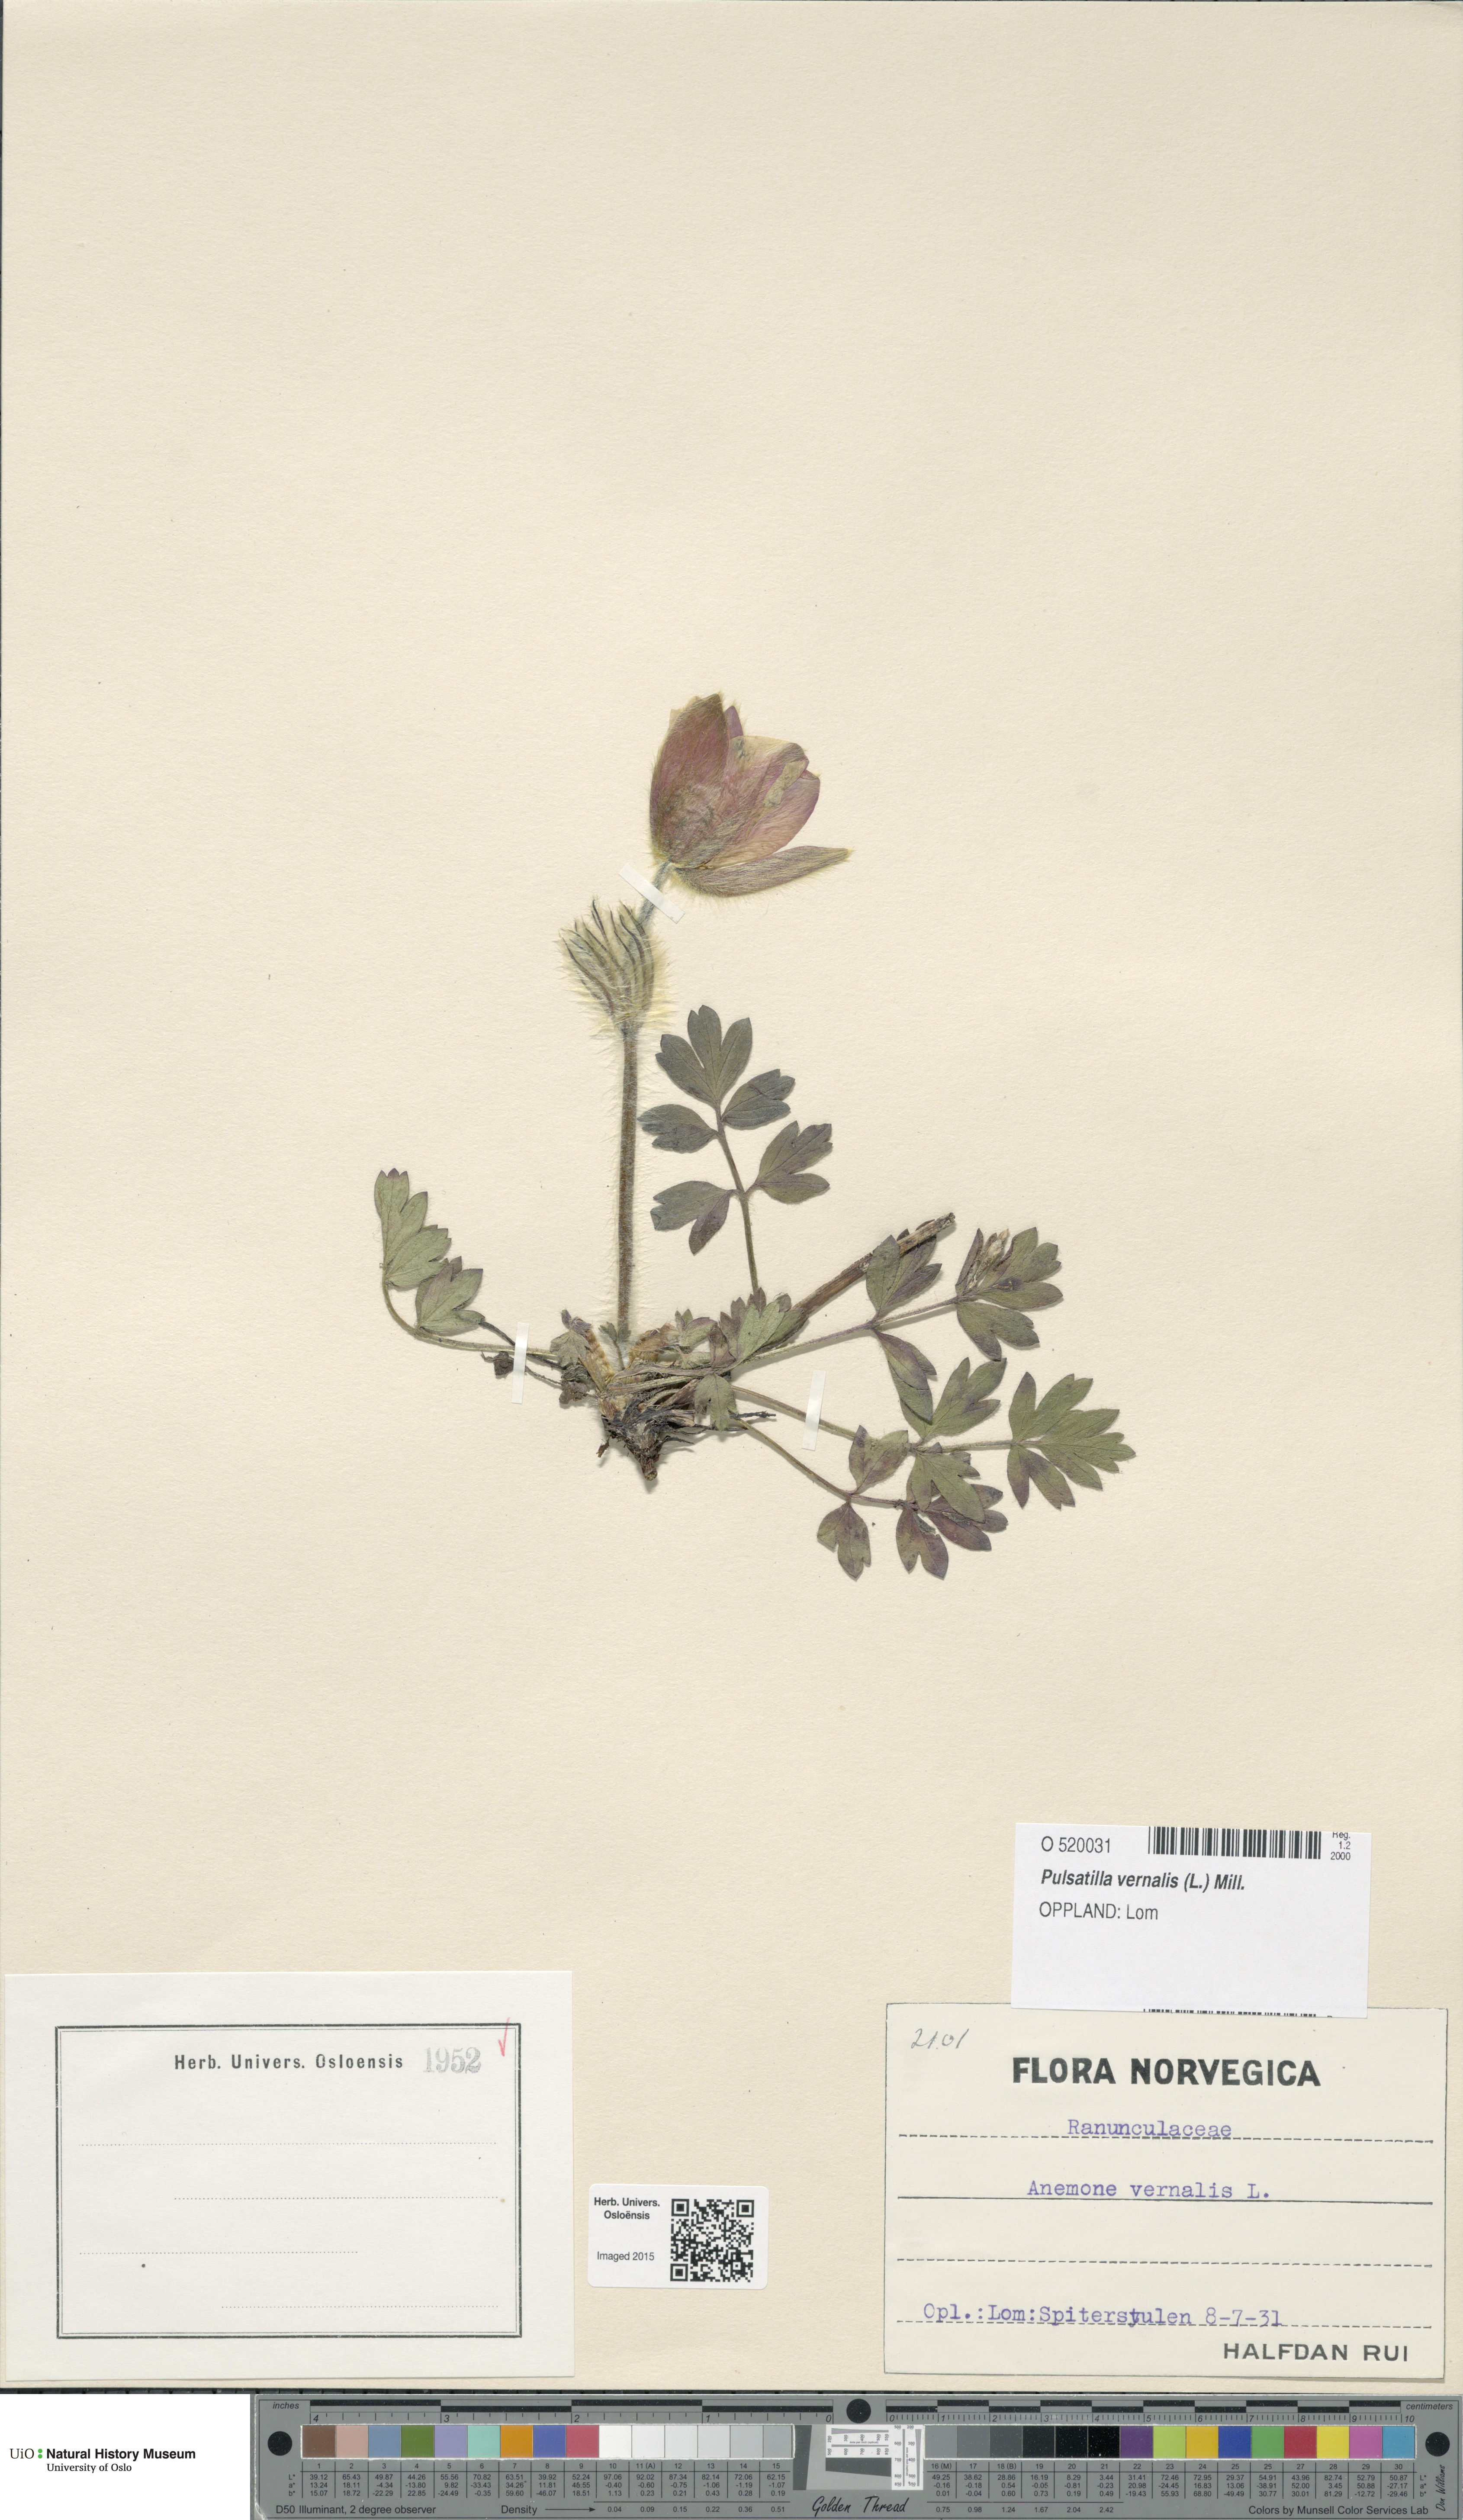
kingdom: Plantae
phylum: Tracheophyta
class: Magnoliopsida
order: Ranunculales
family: Ranunculaceae
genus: Pulsatilla
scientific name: Pulsatilla vernalis
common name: Spring pasque flower
